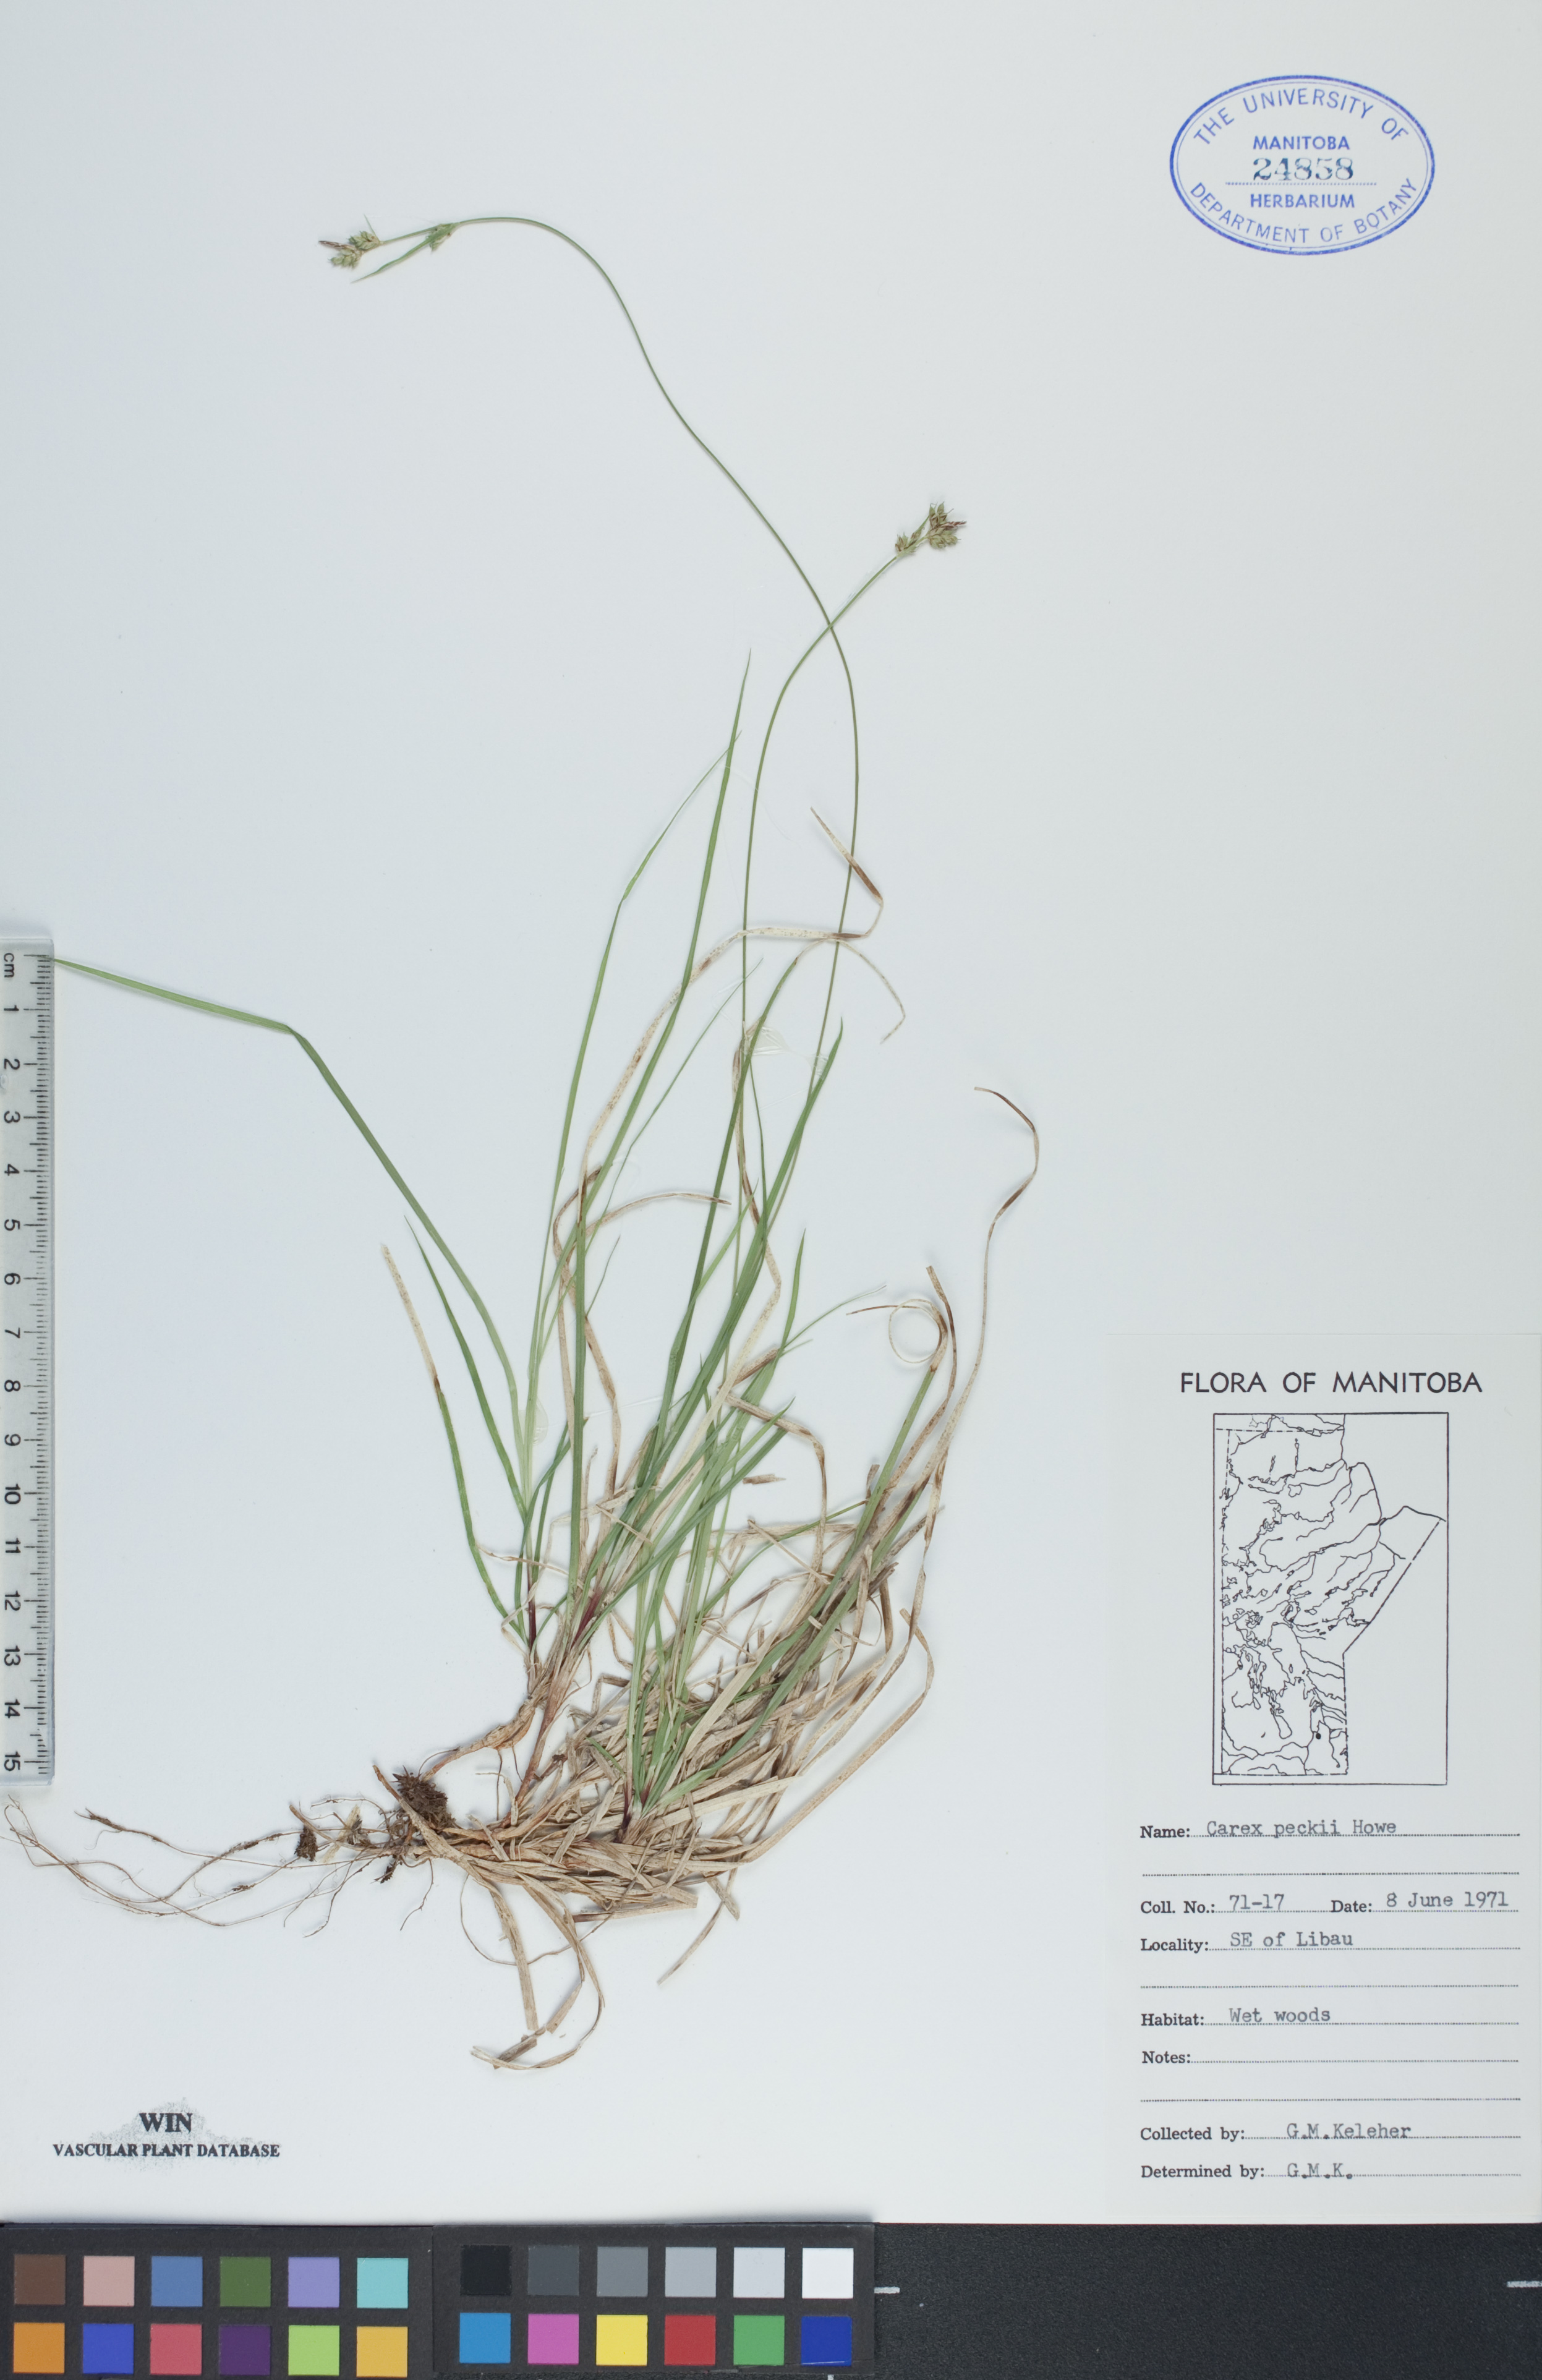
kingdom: Plantae
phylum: Tracheophyta
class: Liliopsida
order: Poales
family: Cyperaceae
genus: Carex
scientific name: Carex peckii
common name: Peck's oak sedge
